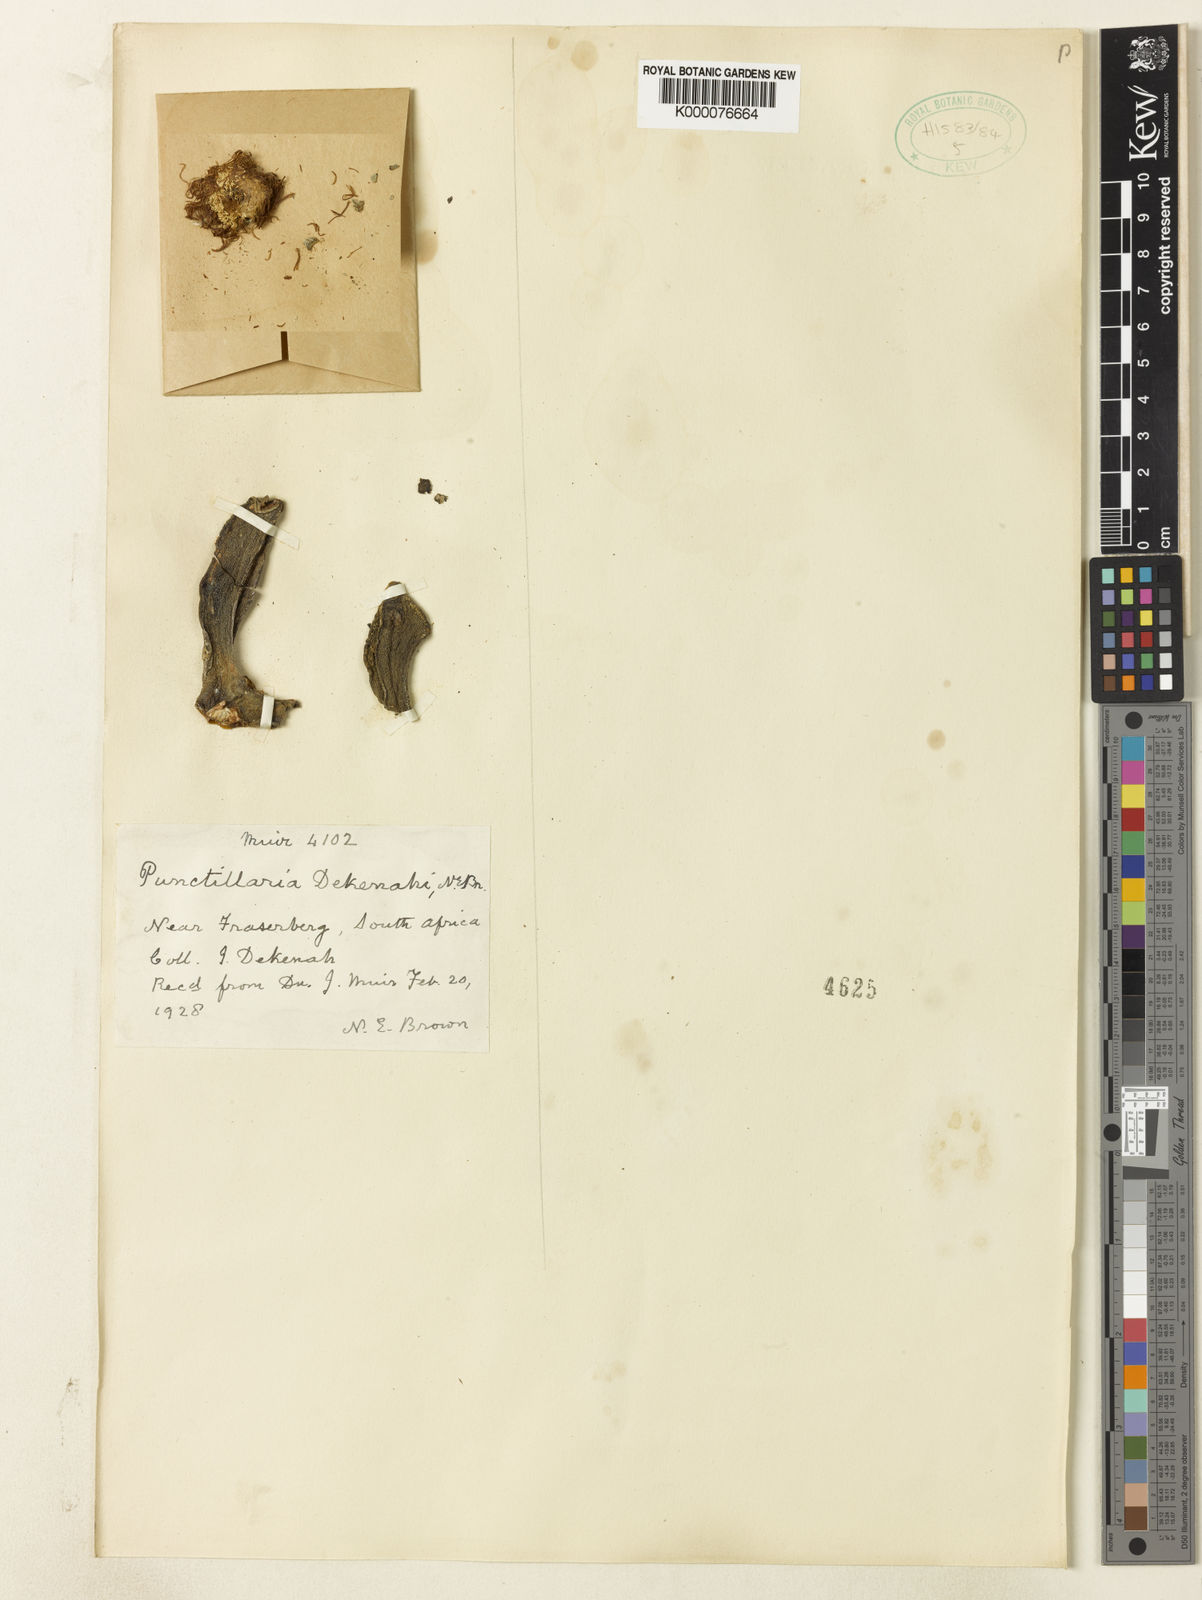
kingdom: Plantae
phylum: Tracheophyta
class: Magnoliopsida
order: Caryophyllales
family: Aizoaceae
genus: Pleiospilos
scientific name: Pleiospilos compactus
